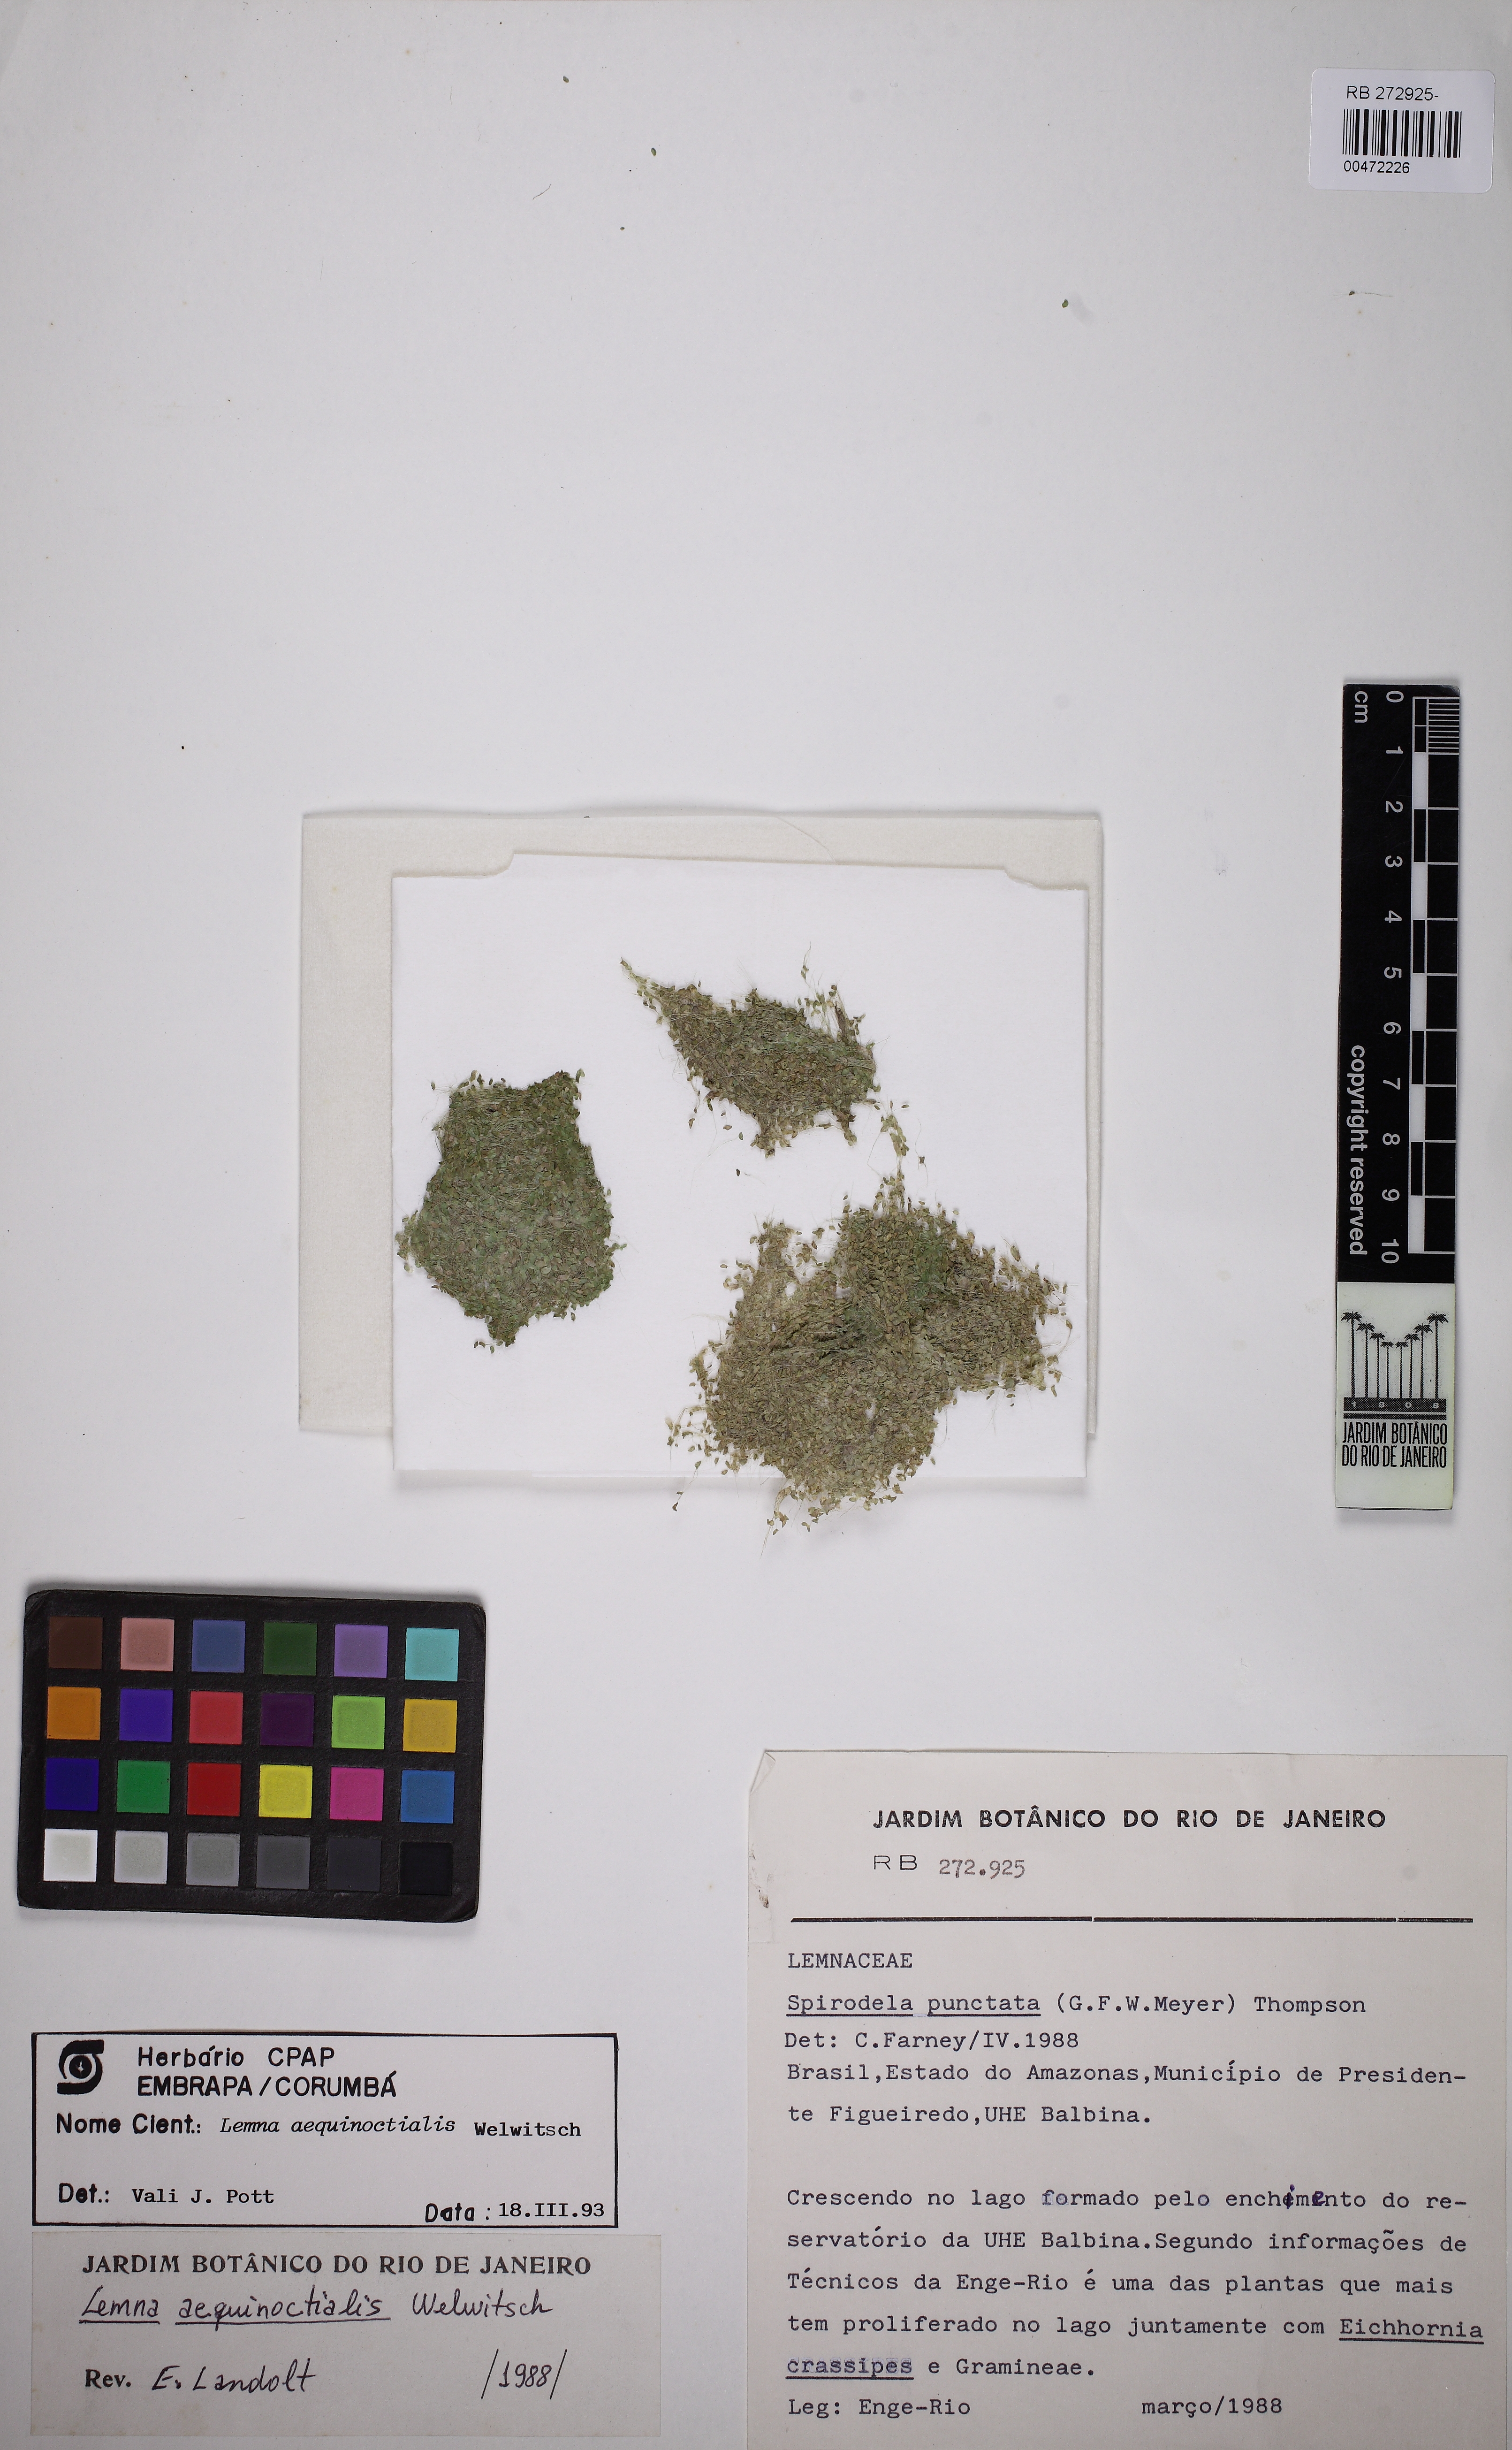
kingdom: Plantae
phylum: Tracheophyta
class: Liliopsida
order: Alismatales
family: Araceae
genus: Lemna
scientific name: Lemna aequinoctialis
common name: Duckweed
